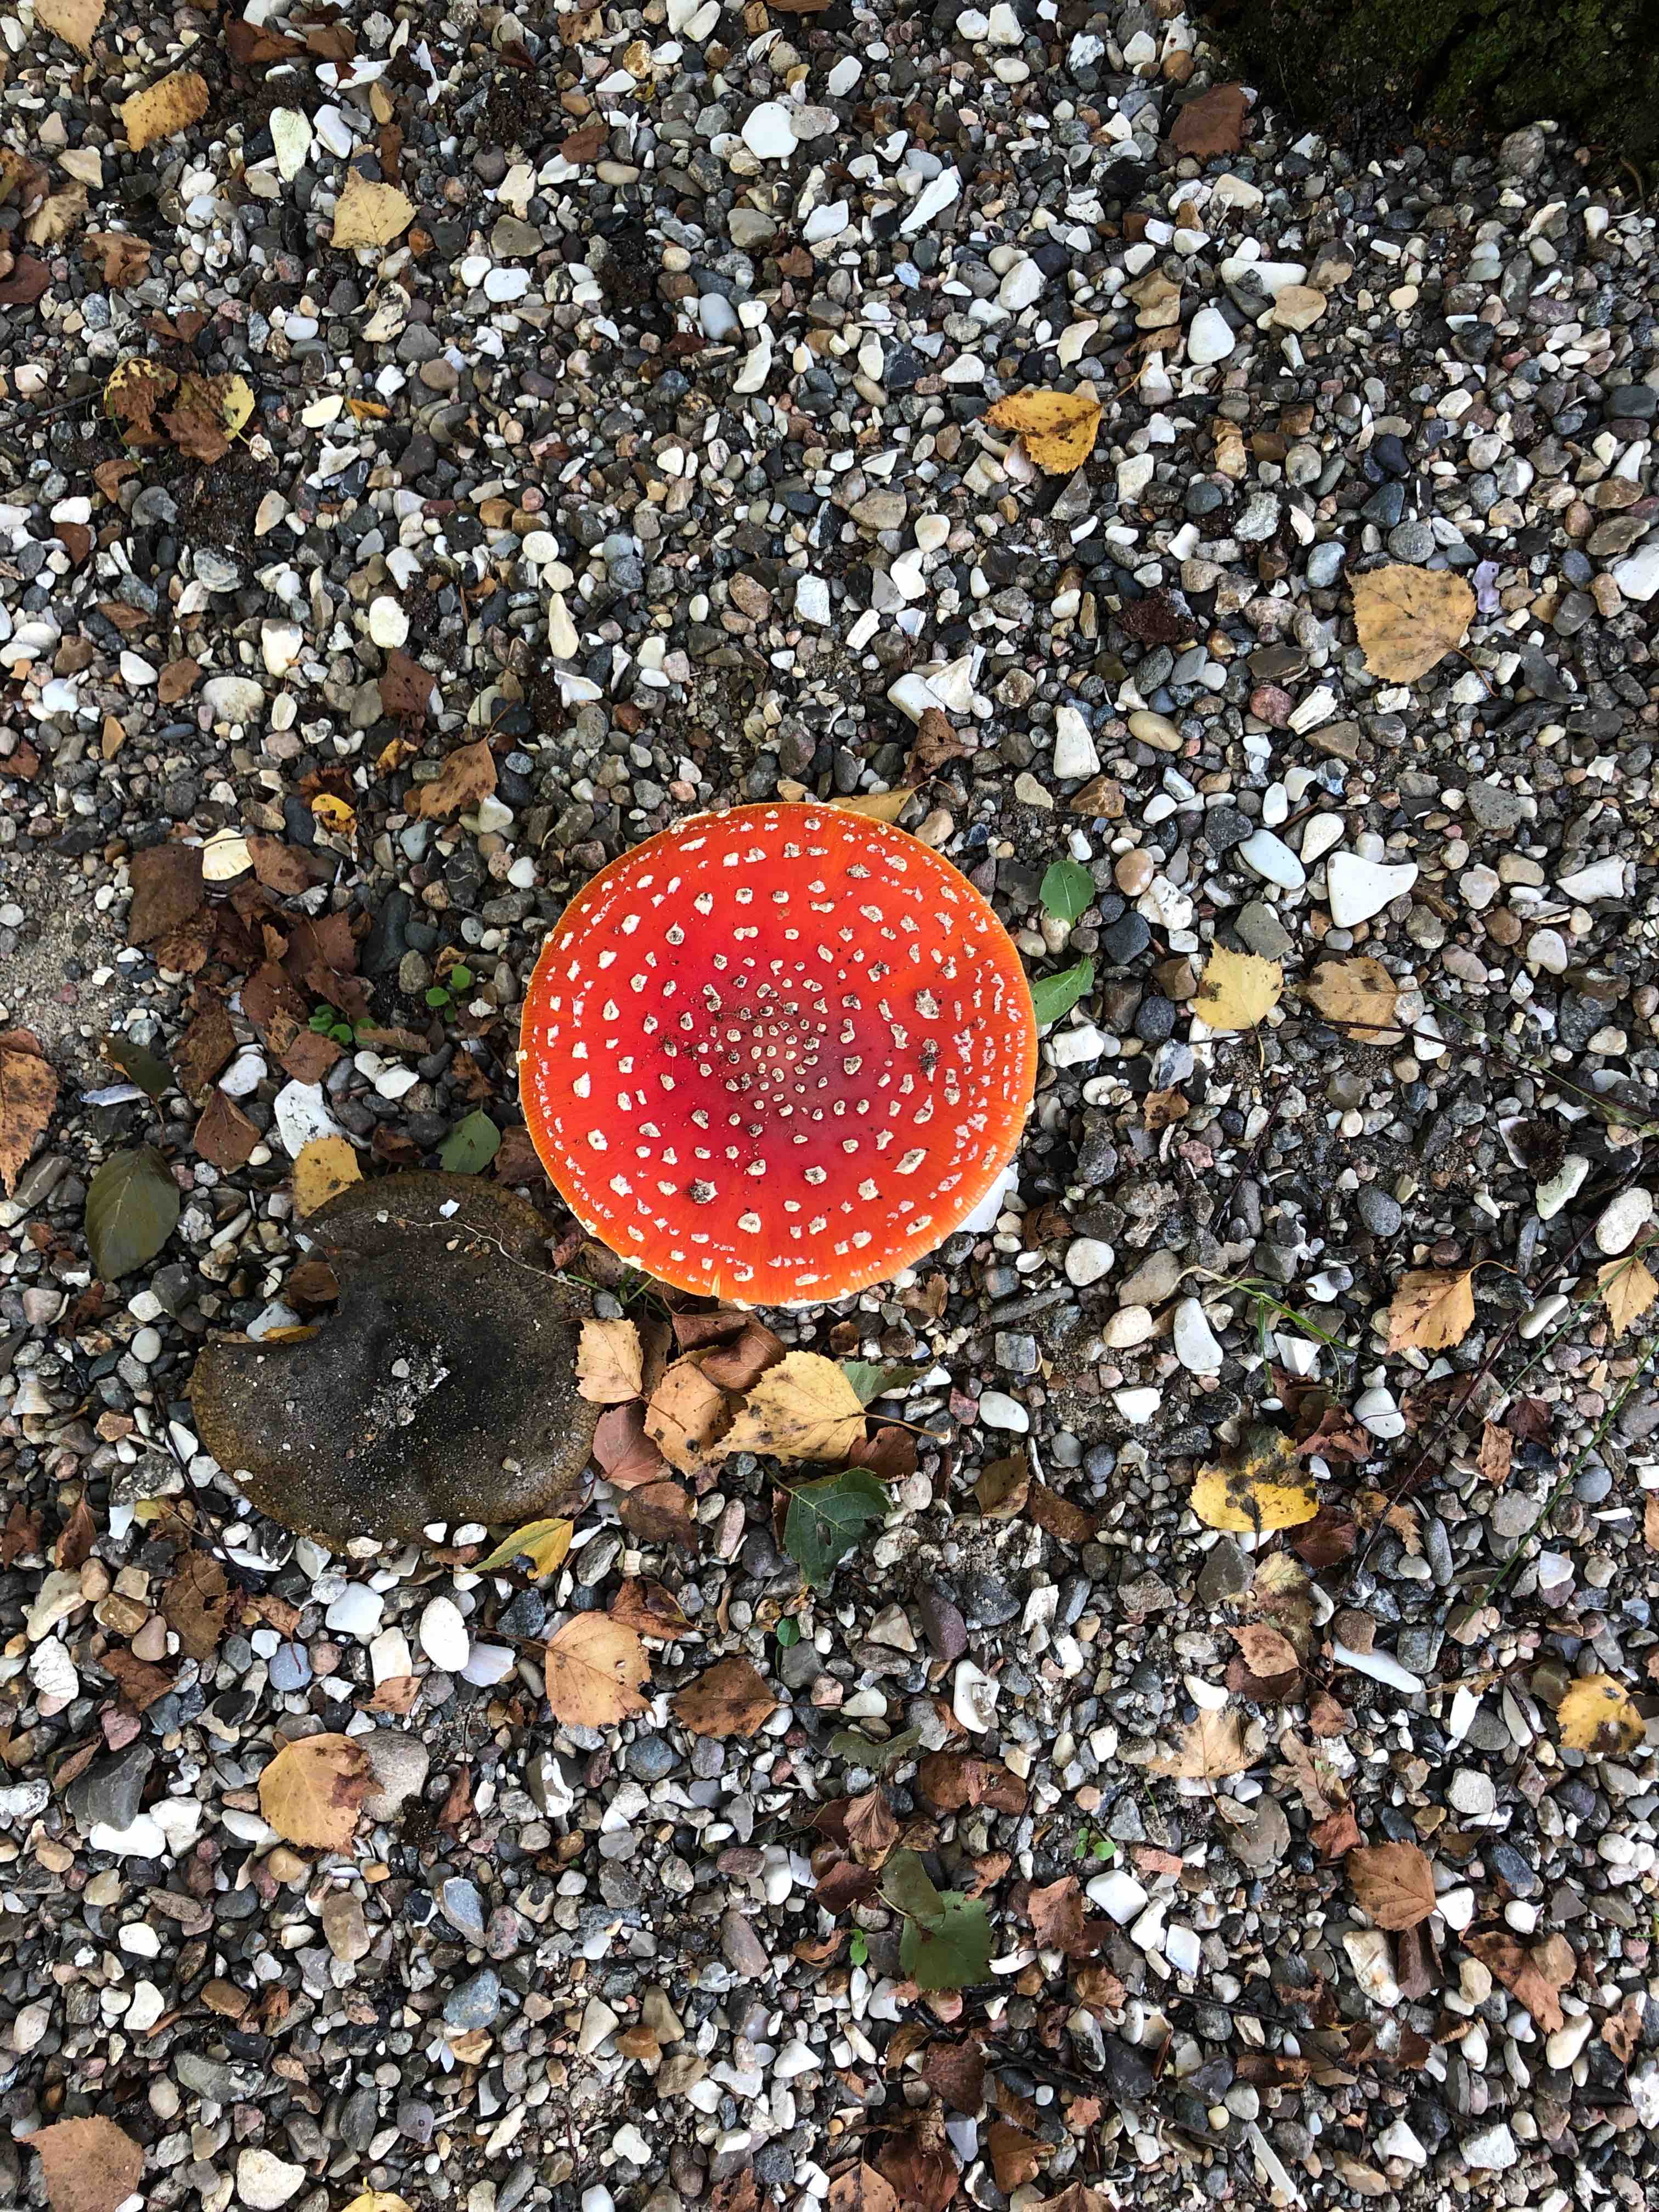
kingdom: Fungi
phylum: Basidiomycota
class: Agaricomycetes
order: Agaricales
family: Amanitaceae
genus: Amanita
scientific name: Amanita muscaria
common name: rød fluesvamp
